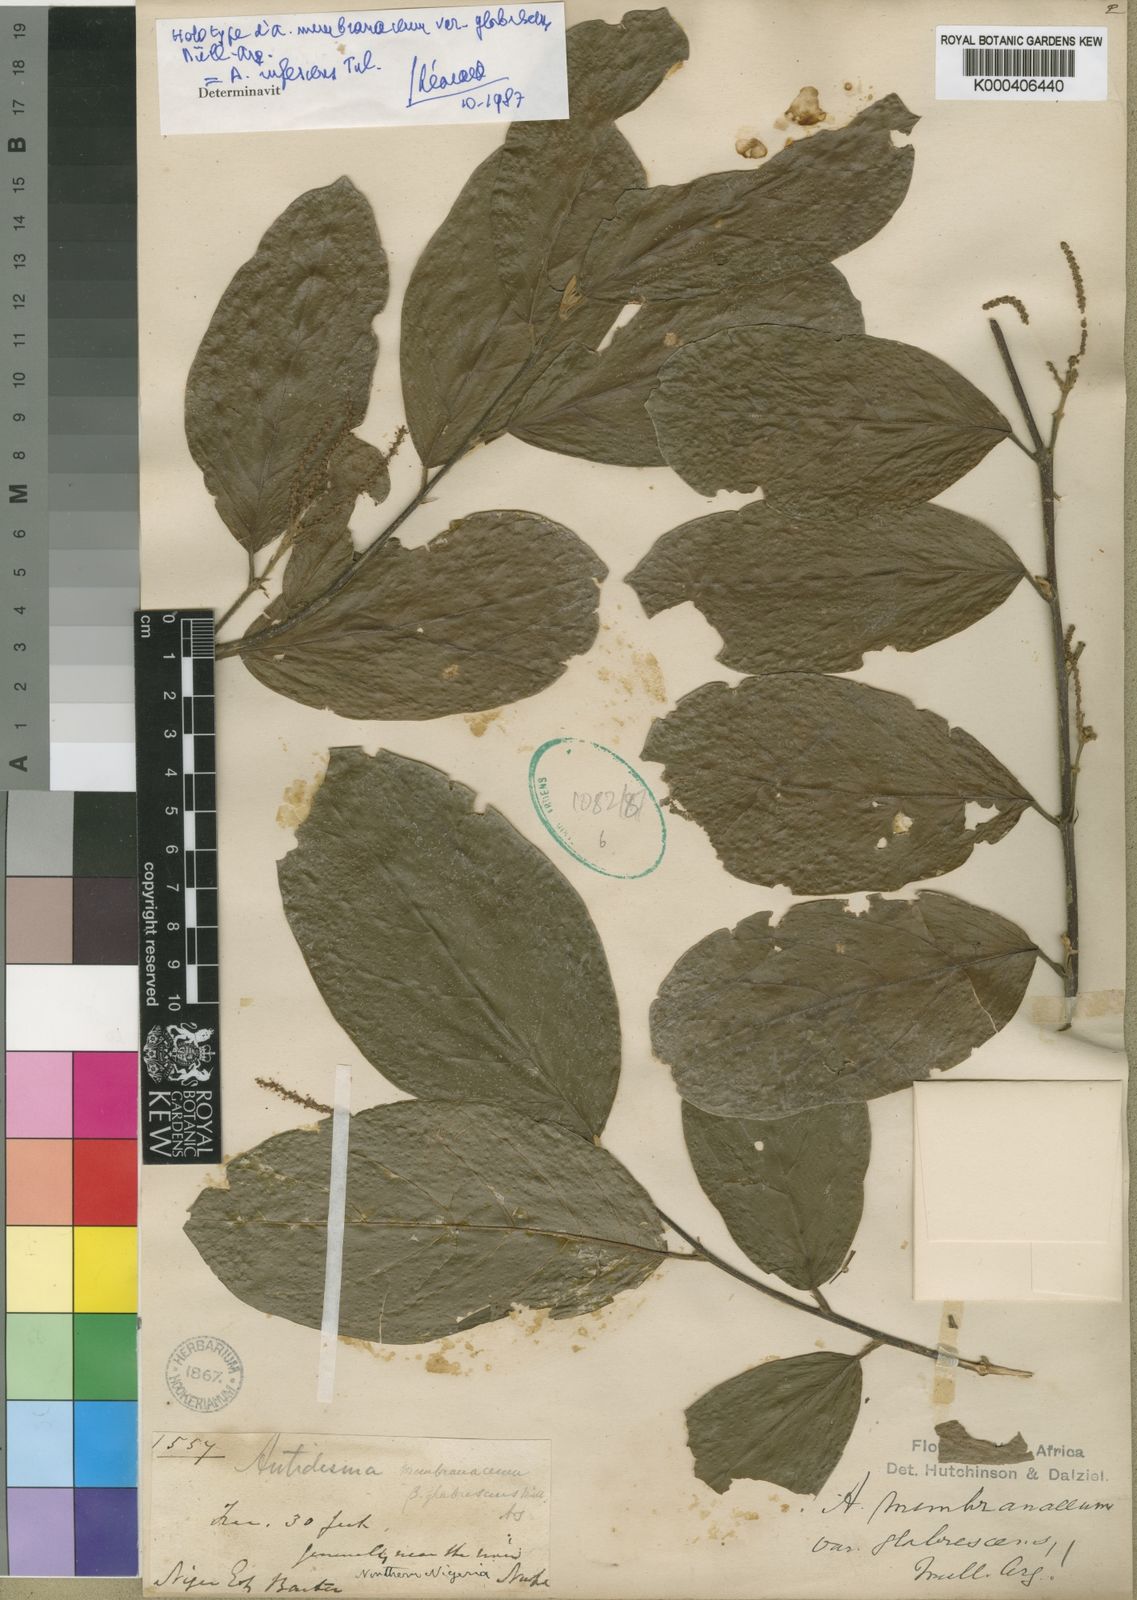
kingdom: Plantae
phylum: Tracheophyta
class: Magnoliopsida
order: Malpighiales
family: Phyllanthaceae
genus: Antidesma
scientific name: Antidesma
